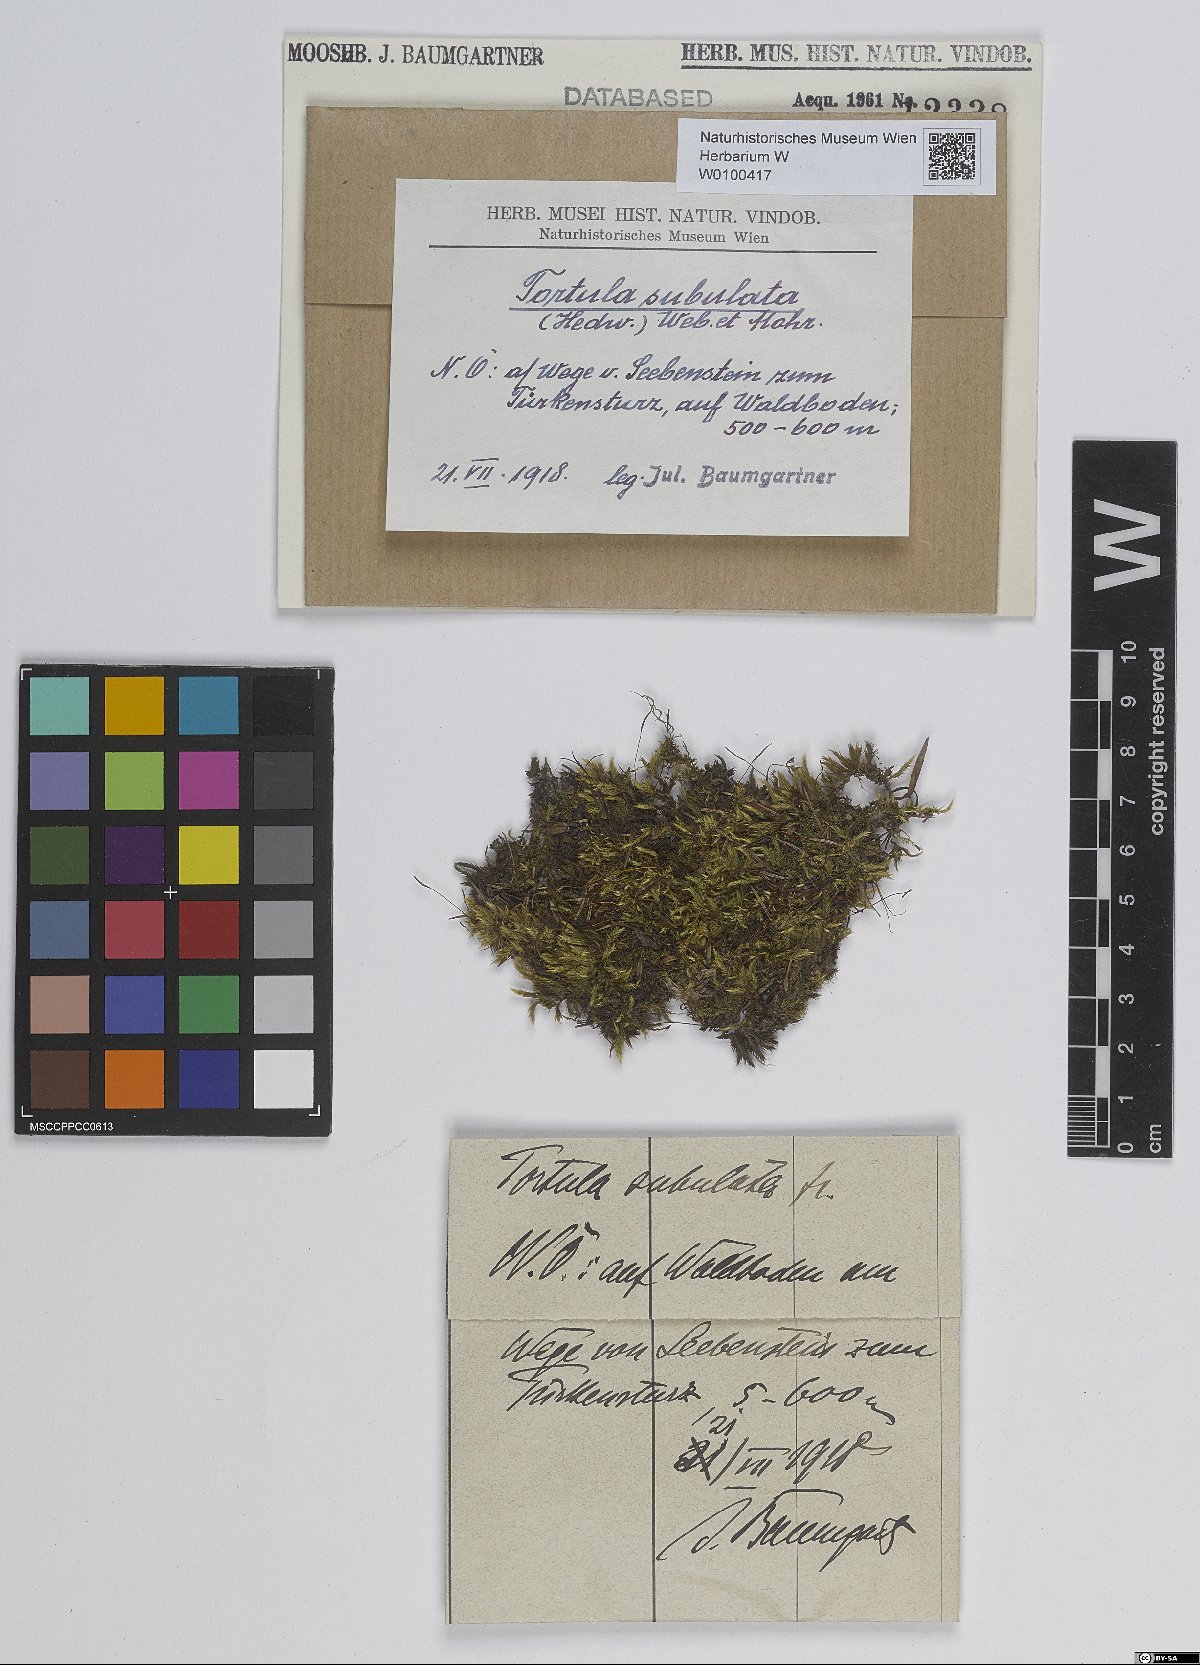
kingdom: Plantae
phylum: Bryophyta
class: Bryopsida
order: Pottiales
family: Pottiaceae
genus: Tortula
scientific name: Tortula schimperi
